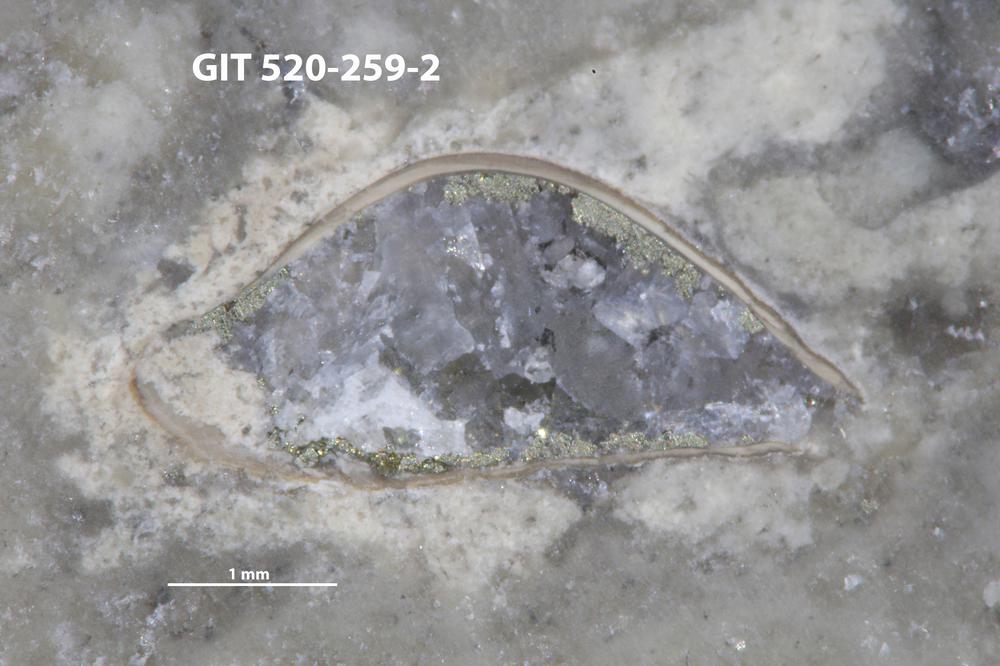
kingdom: Animalia
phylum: Brachiopoda
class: Lingulata
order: Lingulida
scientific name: Lingulida
